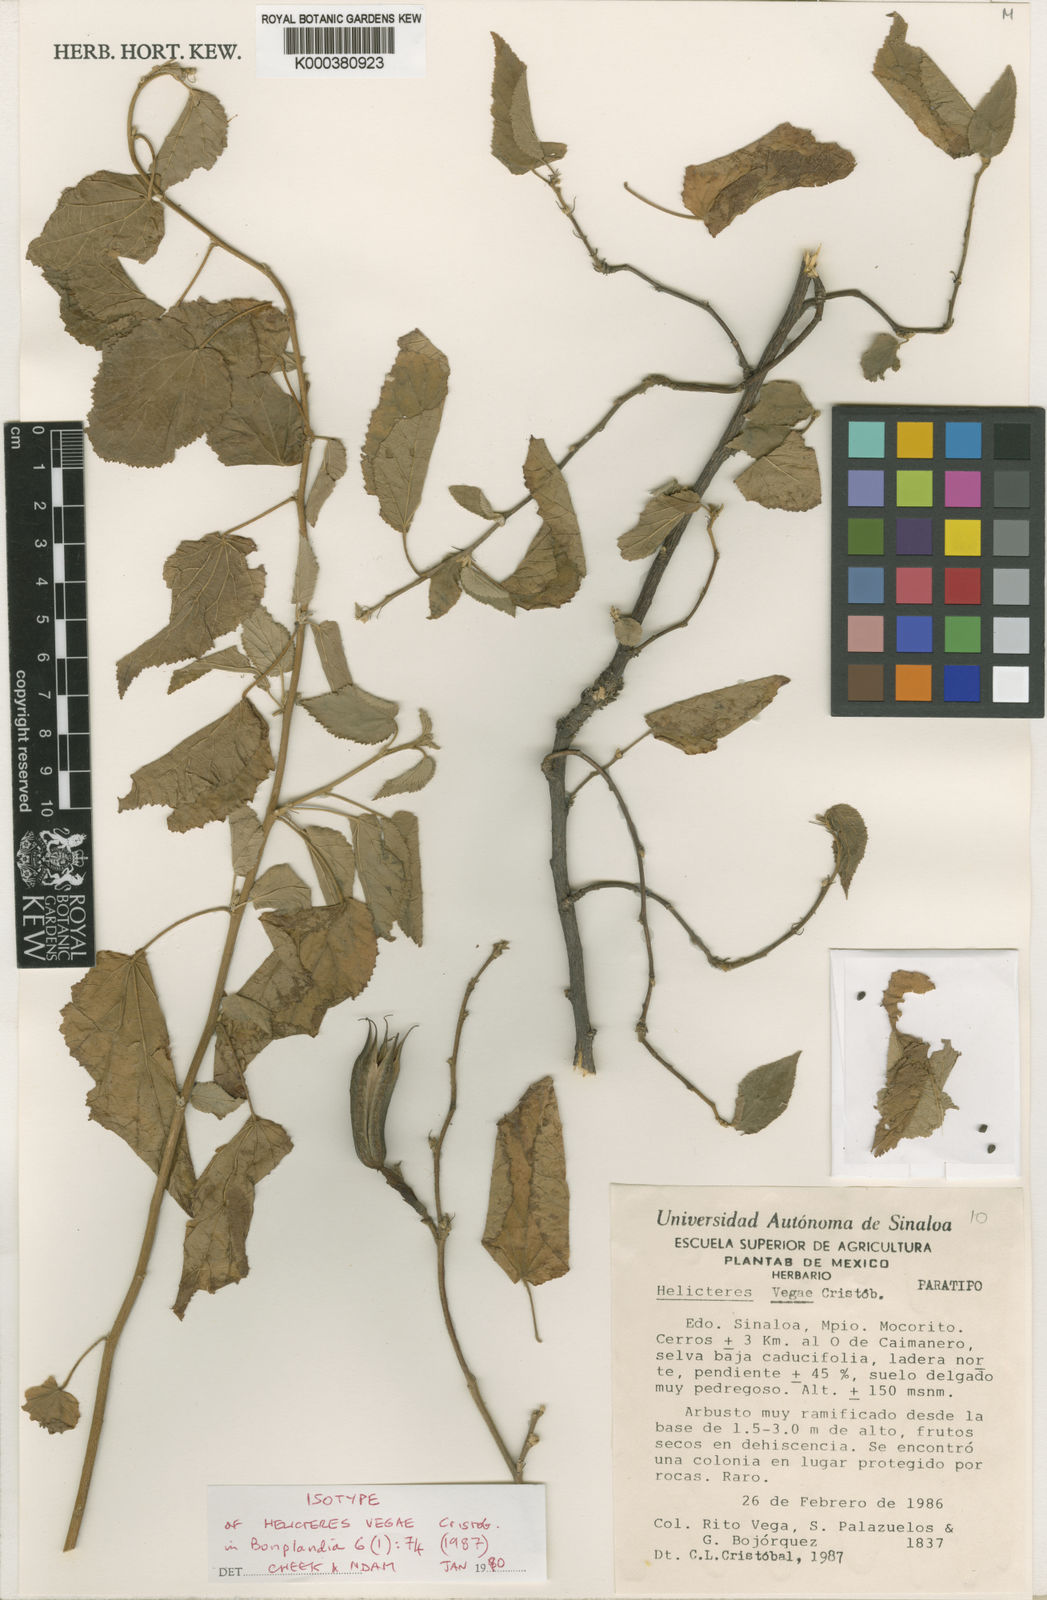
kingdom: Plantae
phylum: Tracheophyta
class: Magnoliopsida
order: Malvales
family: Malvaceae
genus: Helicteres
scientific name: Helicteres
